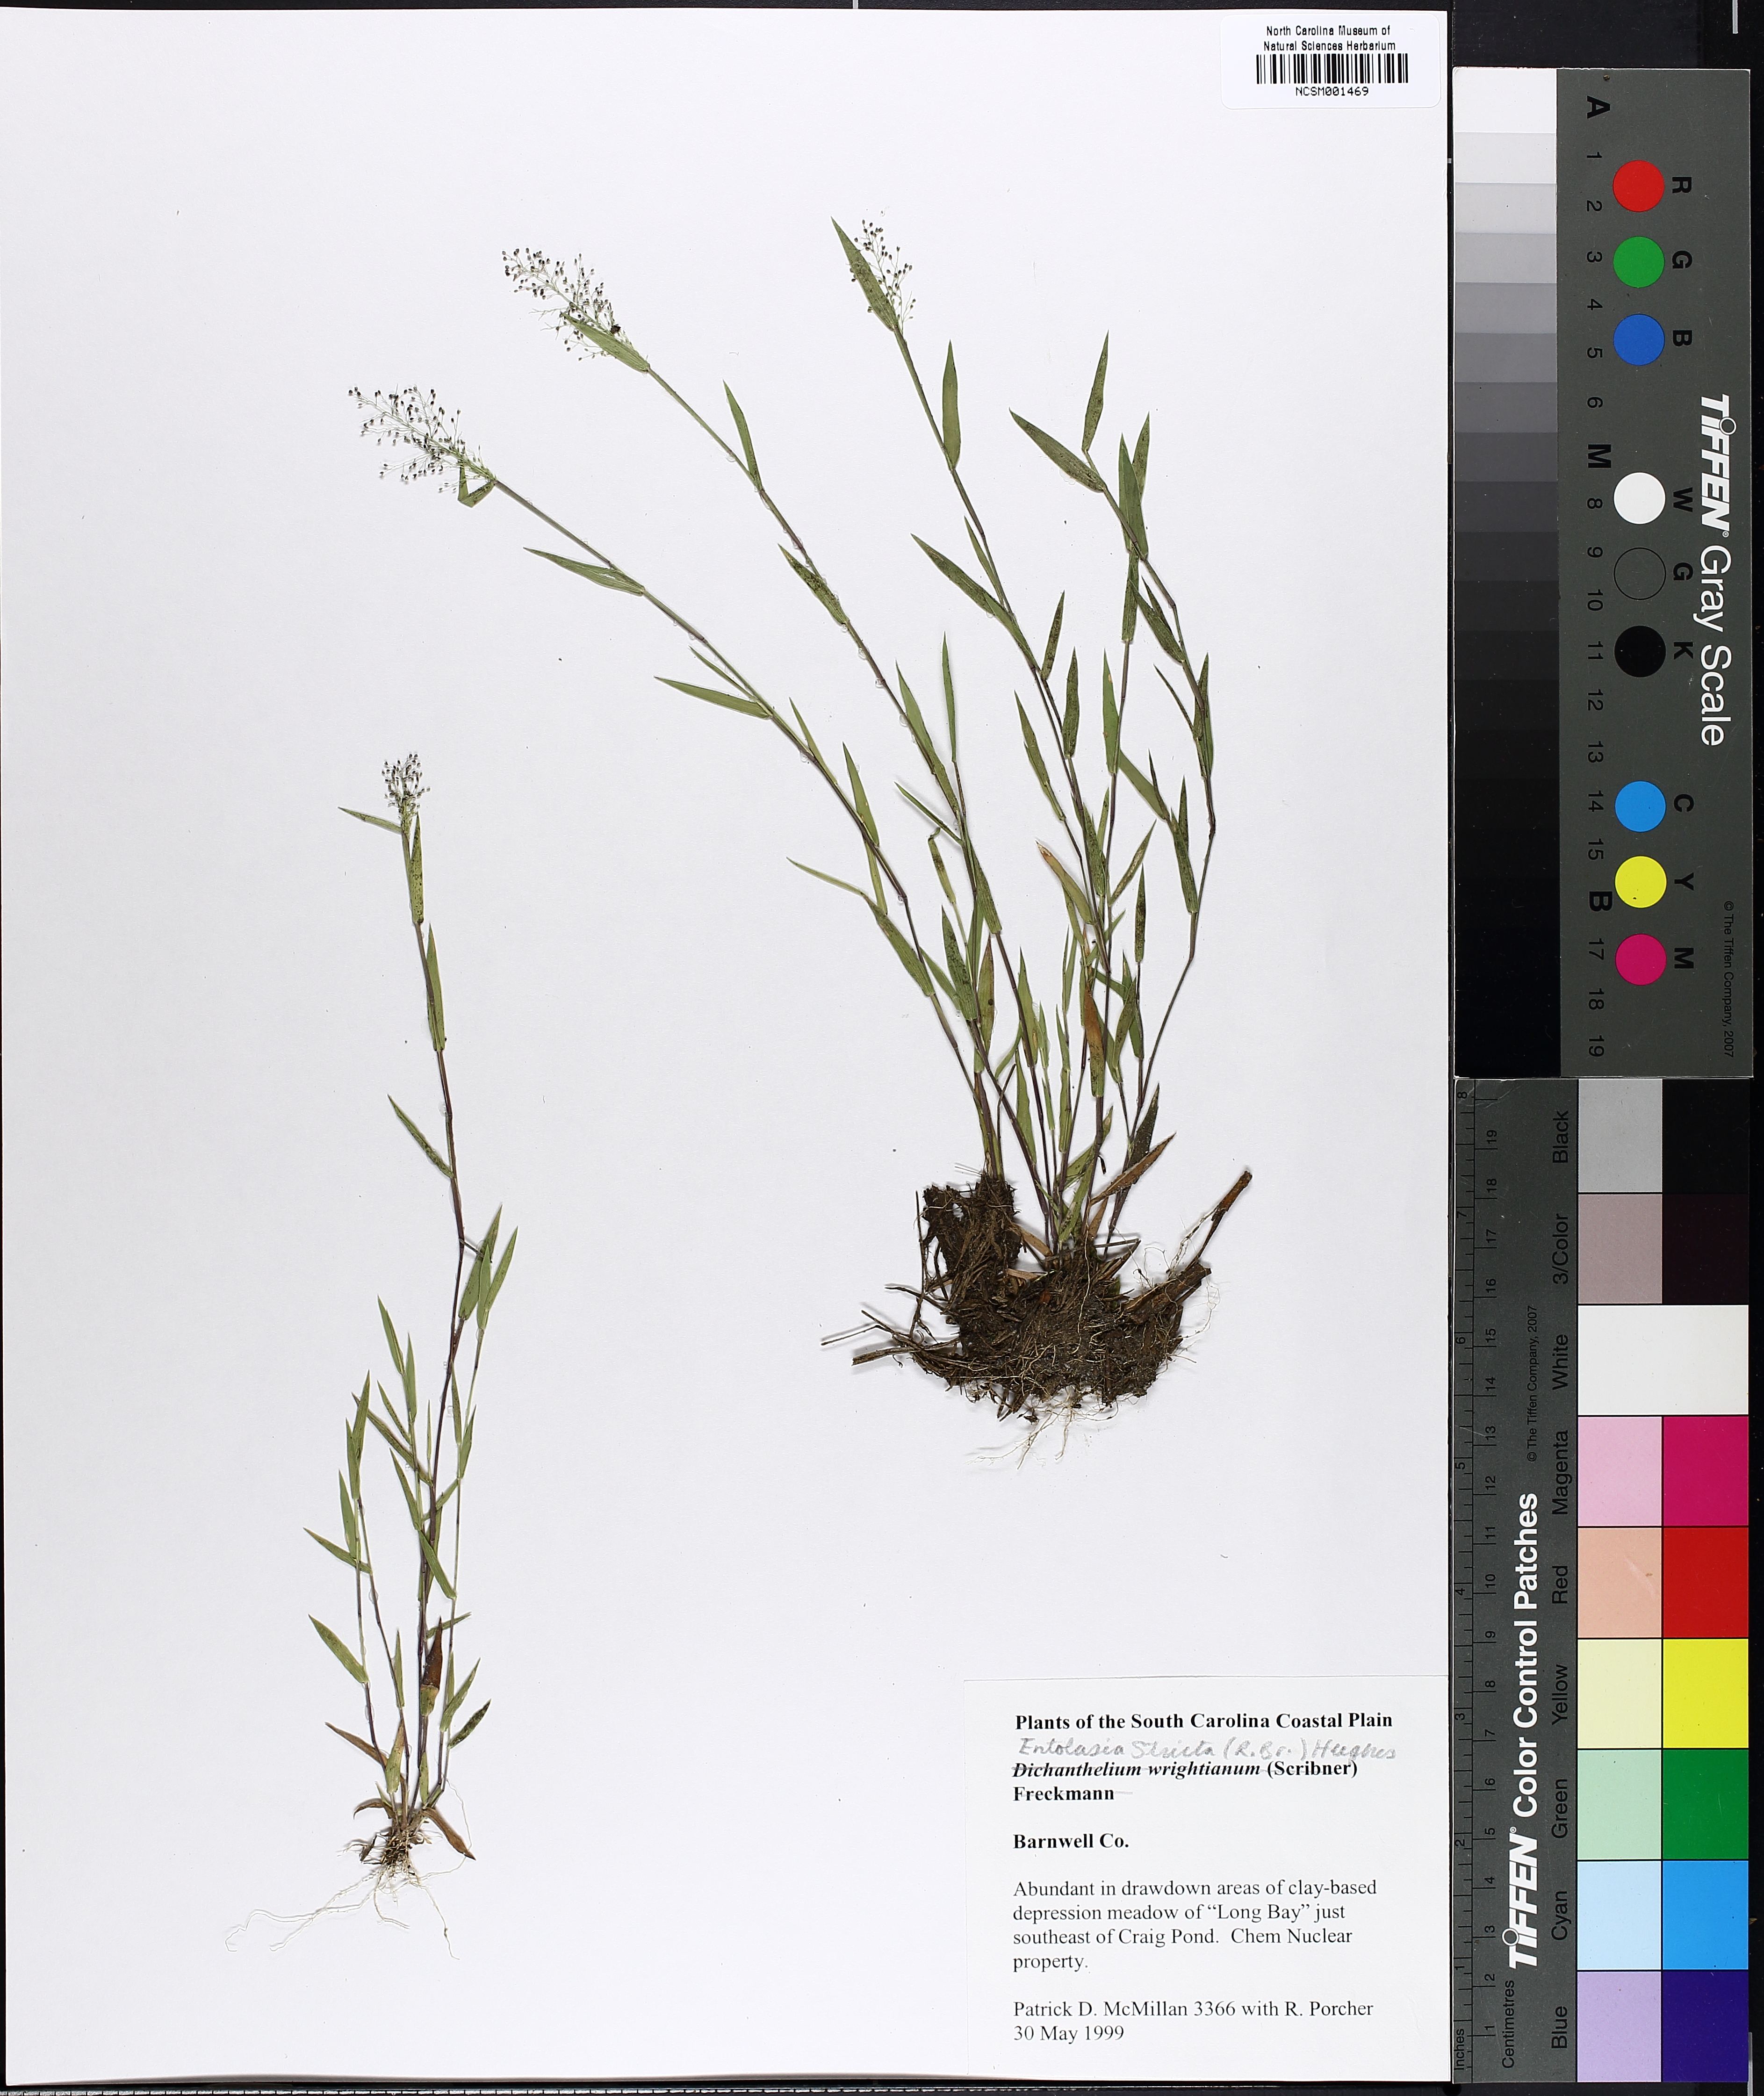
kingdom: Plantae
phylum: Tracheophyta
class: Liliopsida
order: Poales
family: Poaceae
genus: Dichanthelium
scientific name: Dichanthelium wrightianum
